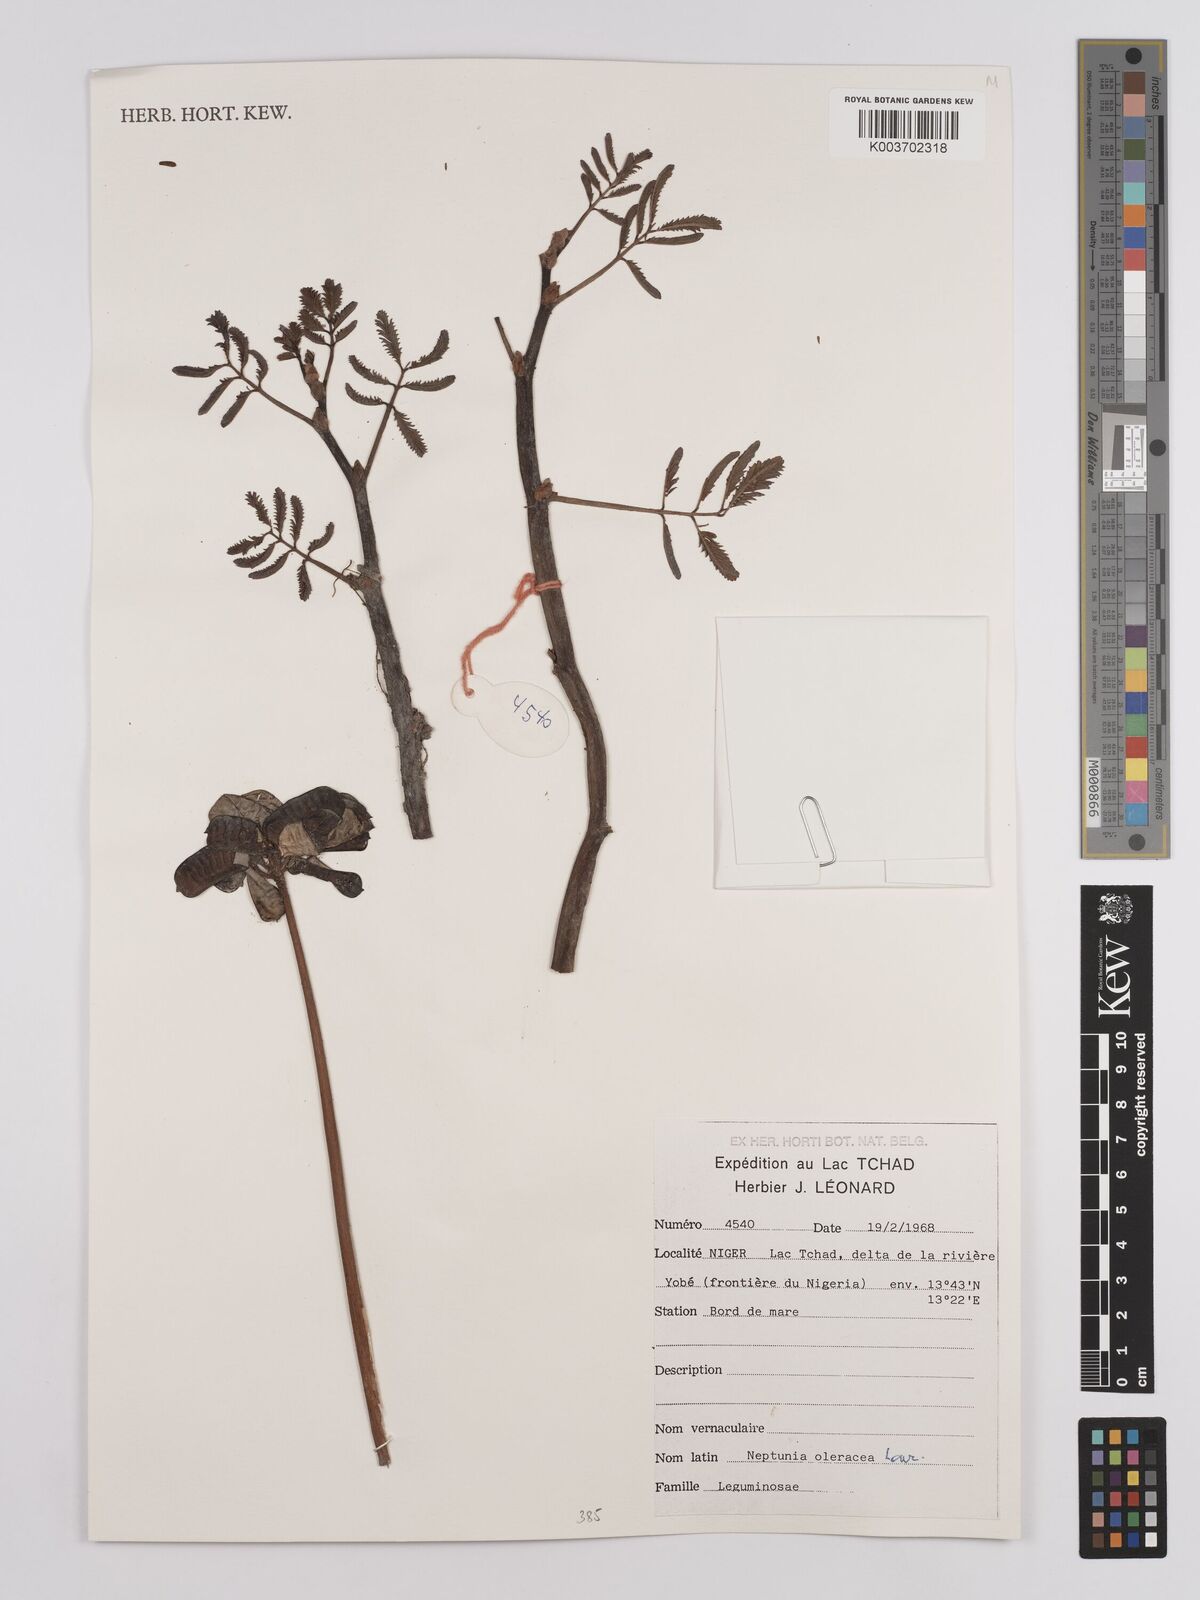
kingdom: Plantae
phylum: Tracheophyta
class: Magnoliopsida
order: Fabales
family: Fabaceae
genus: Neptunia
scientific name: Neptunia prostrata
